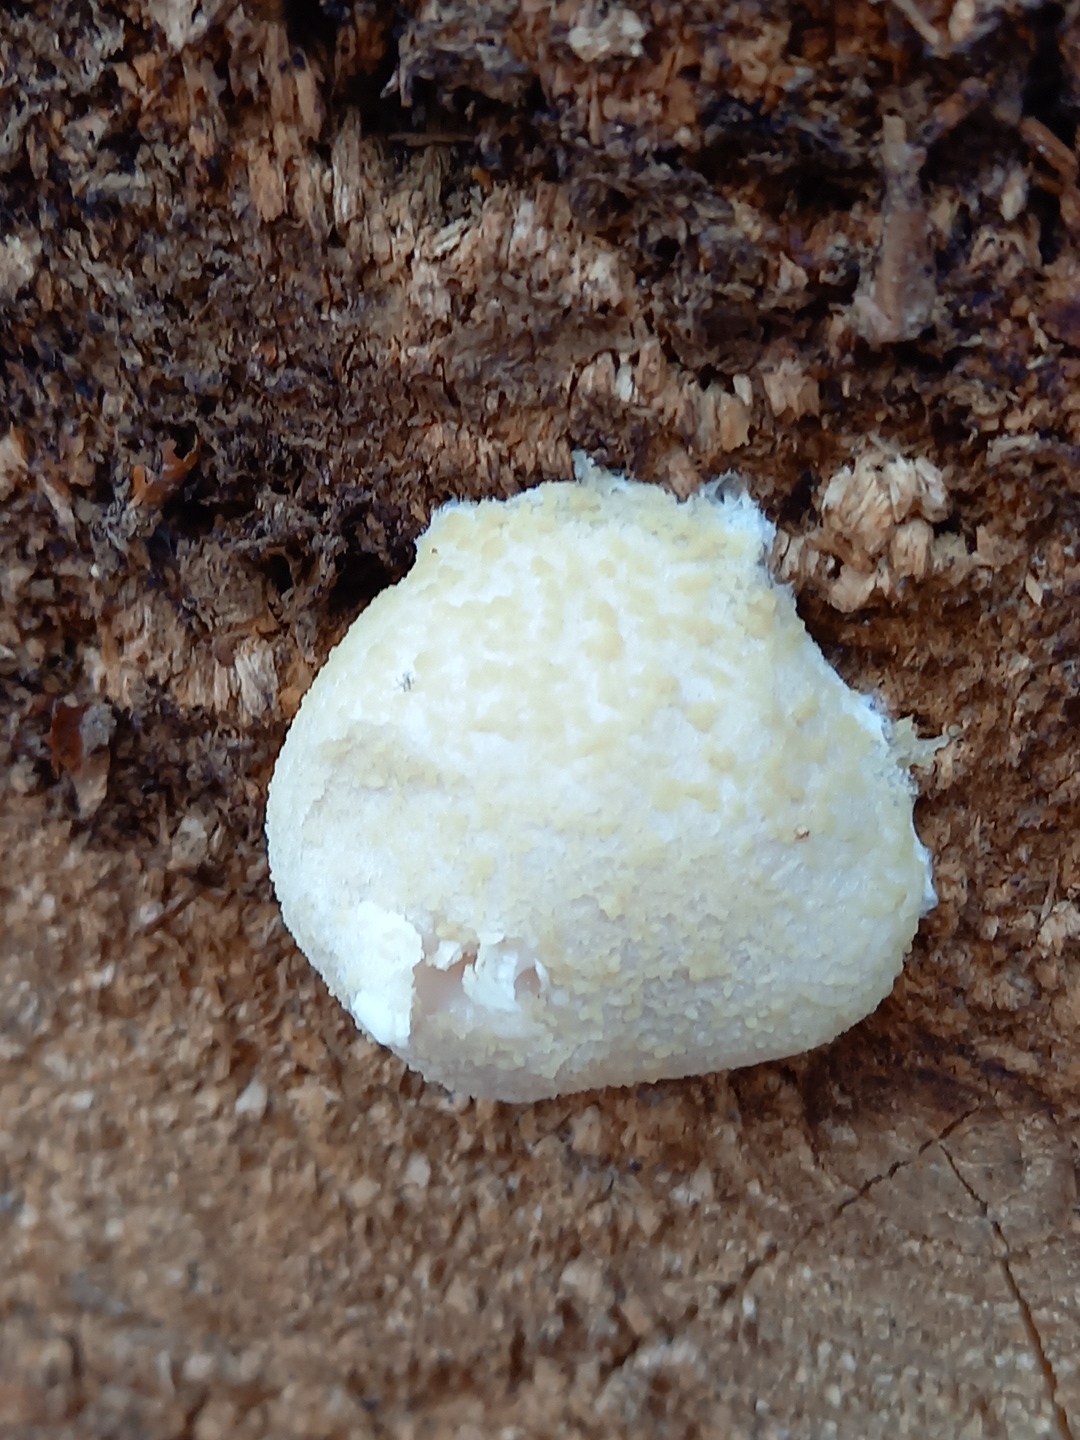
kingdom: Protozoa
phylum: Mycetozoa
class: Myxomycetes
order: Cribrariales
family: Tubiferaceae
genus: Reticularia
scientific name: Reticularia lycoperdon
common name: skinnende støvpude
